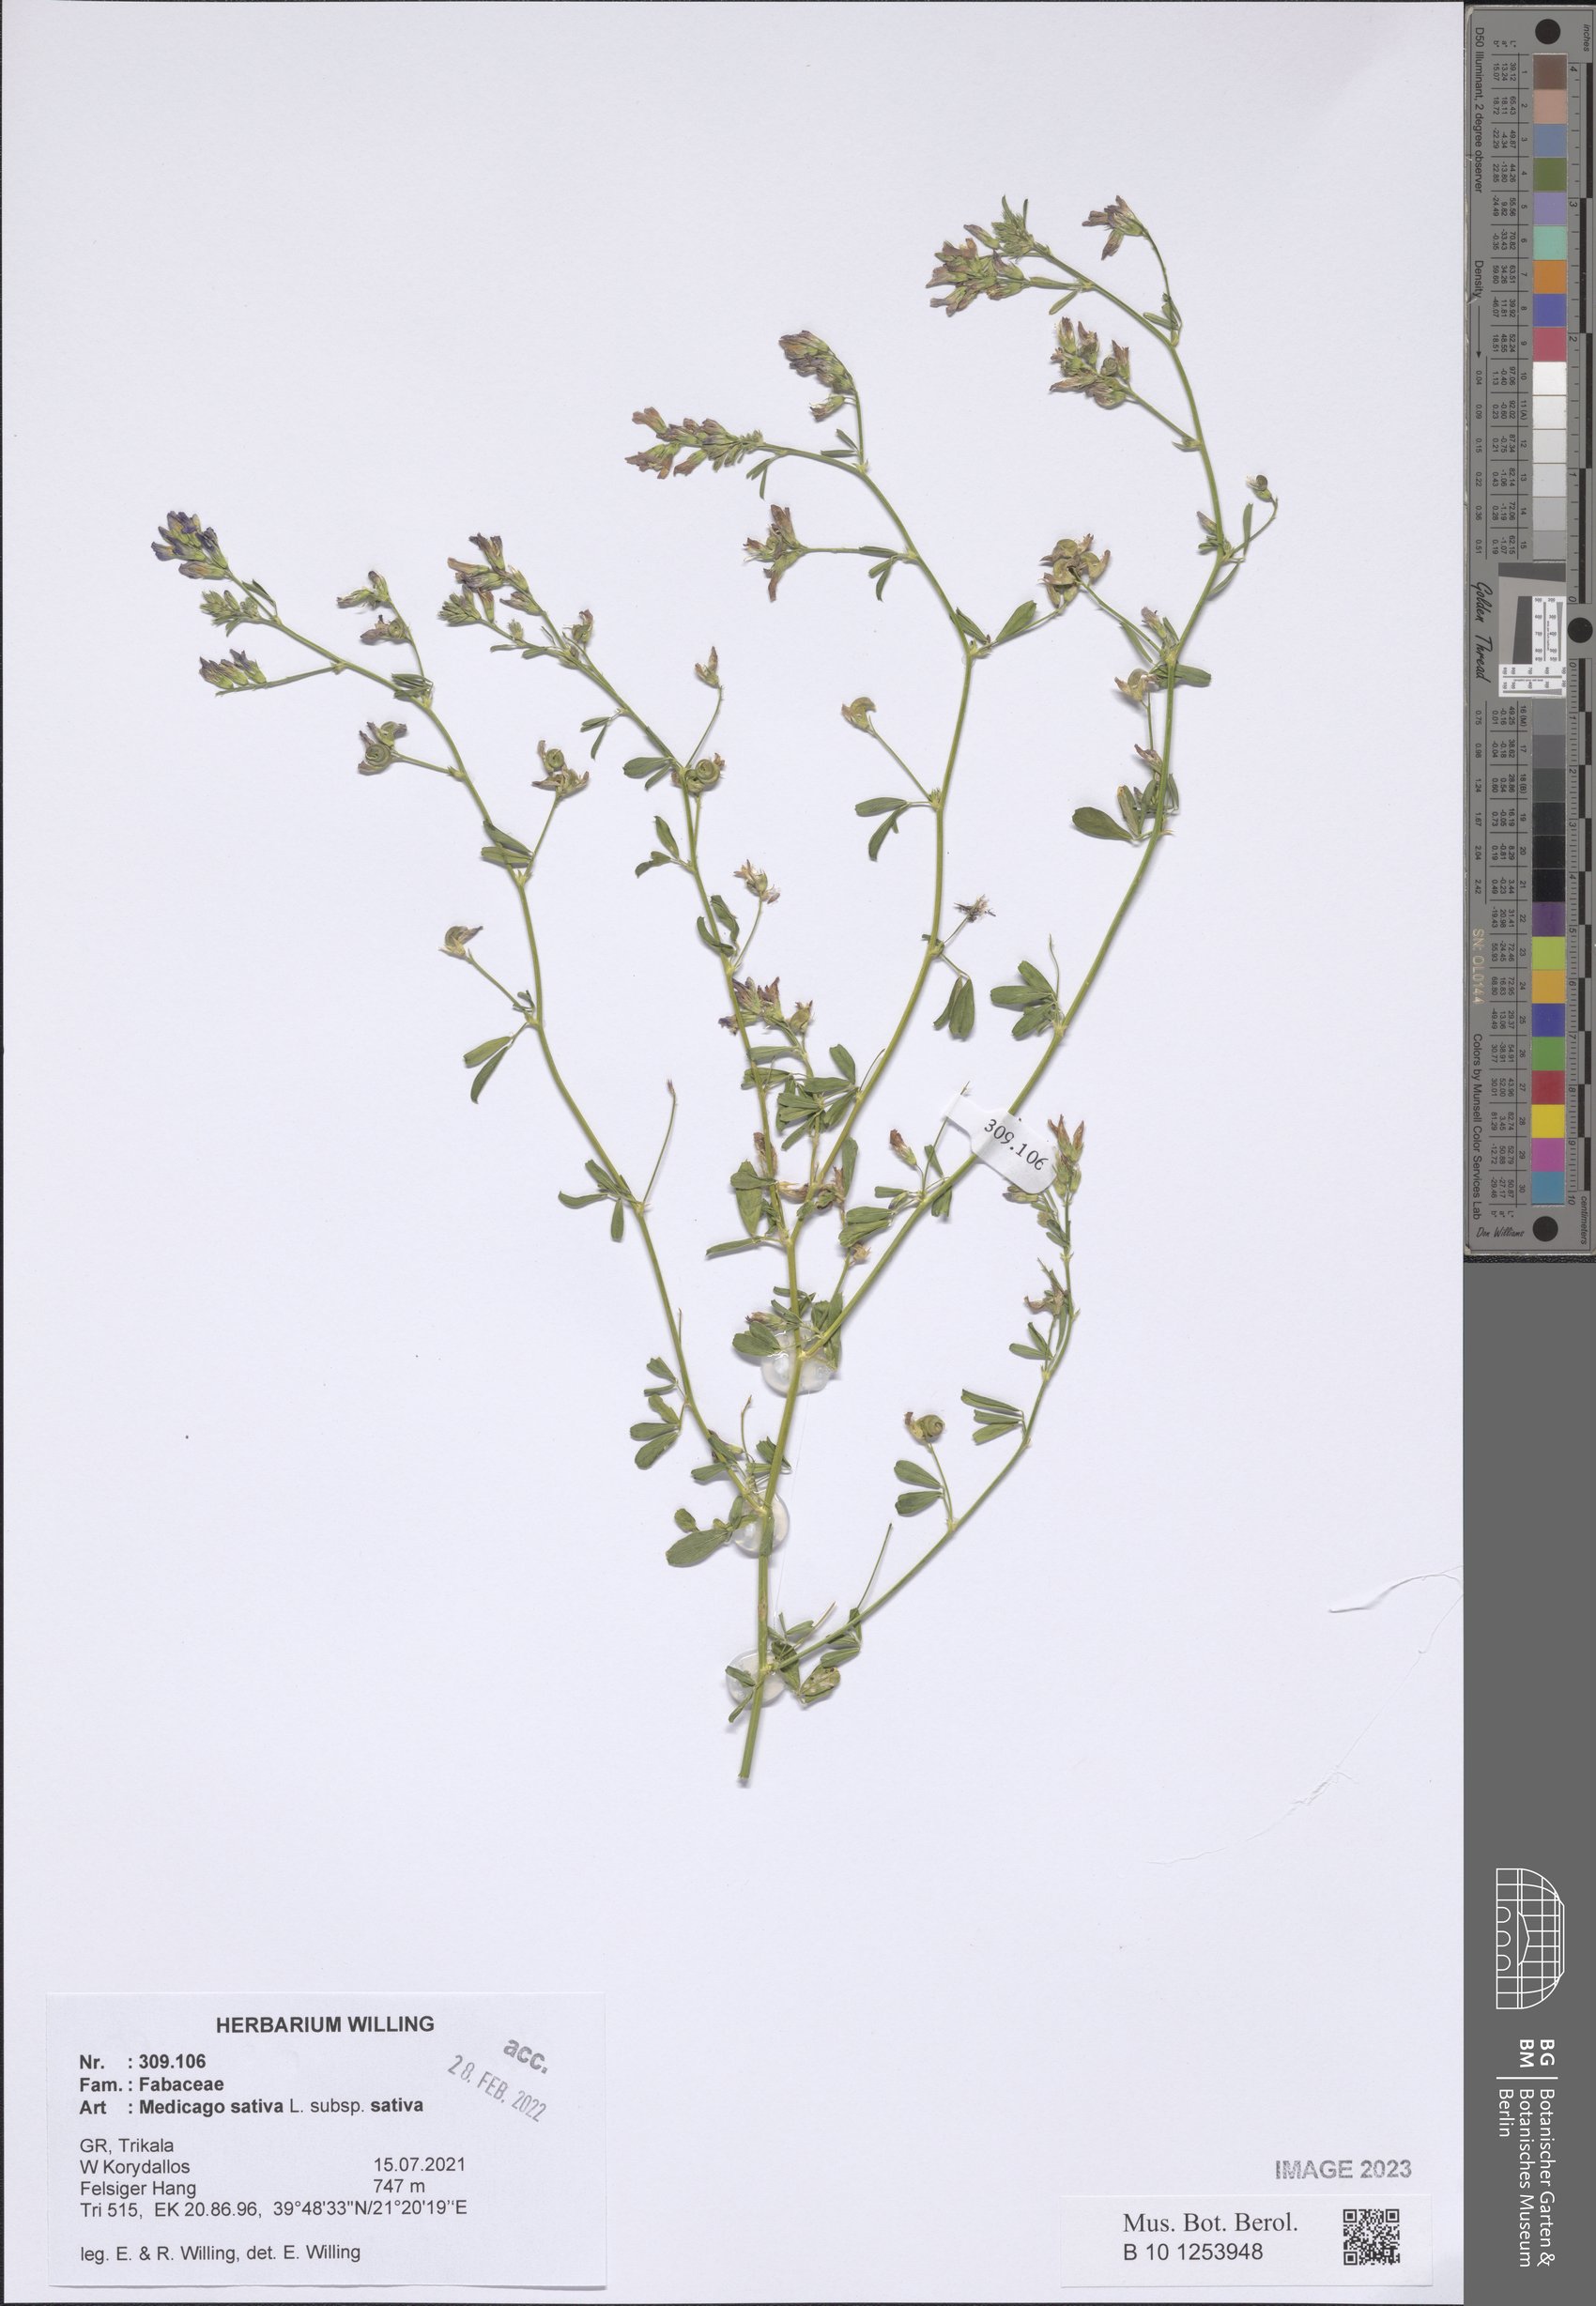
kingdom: Plantae
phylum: Tracheophyta
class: Magnoliopsida
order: Fabales
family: Fabaceae
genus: Medicago
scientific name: Medicago sativa
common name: Alfalfa
